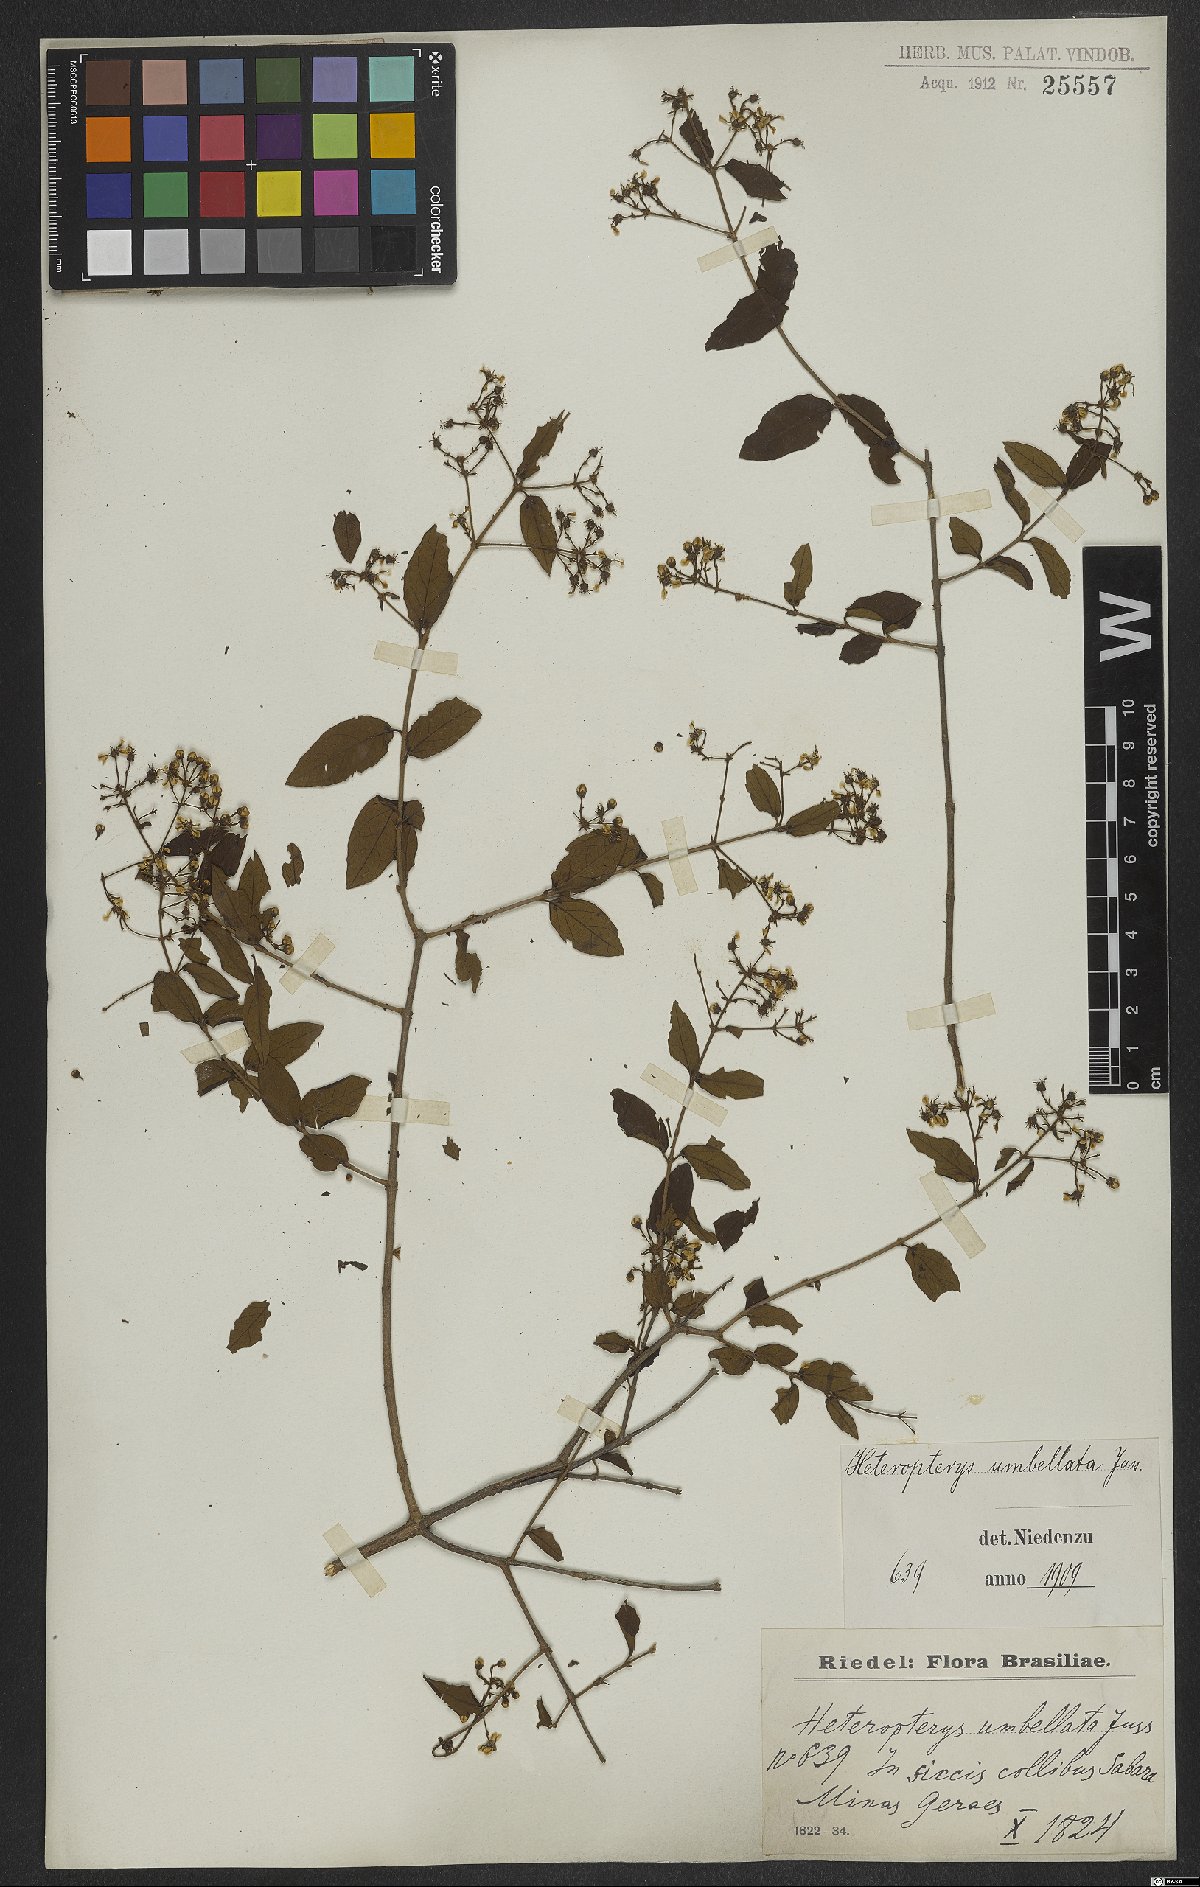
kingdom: Plantae
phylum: Tracheophyta
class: Magnoliopsida
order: Malpighiales
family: Malpighiaceae
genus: Heteropterys
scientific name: Heteropterys umbellata
